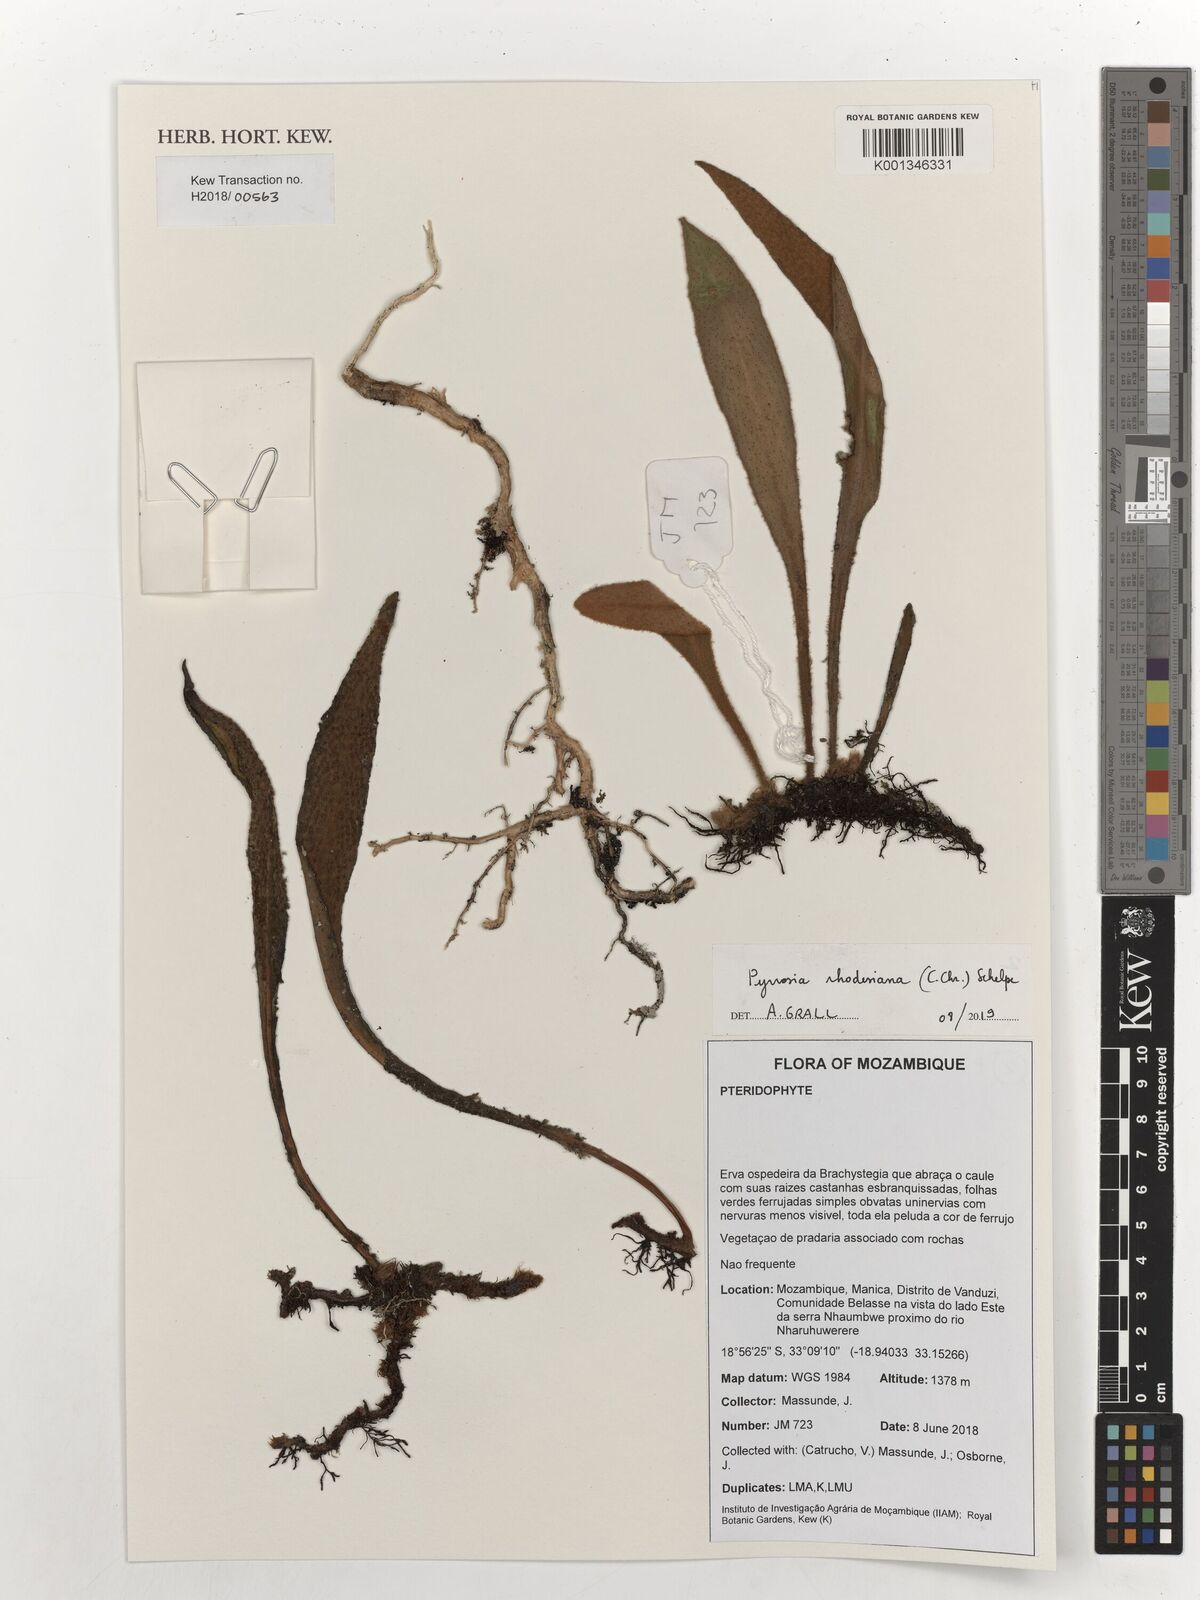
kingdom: Plantae
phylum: Tracheophyta
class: Polypodiopsida
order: Polypodiales
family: Polypodiaceae
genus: Pyrrosia
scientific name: Pyrrosia rhodesiana
